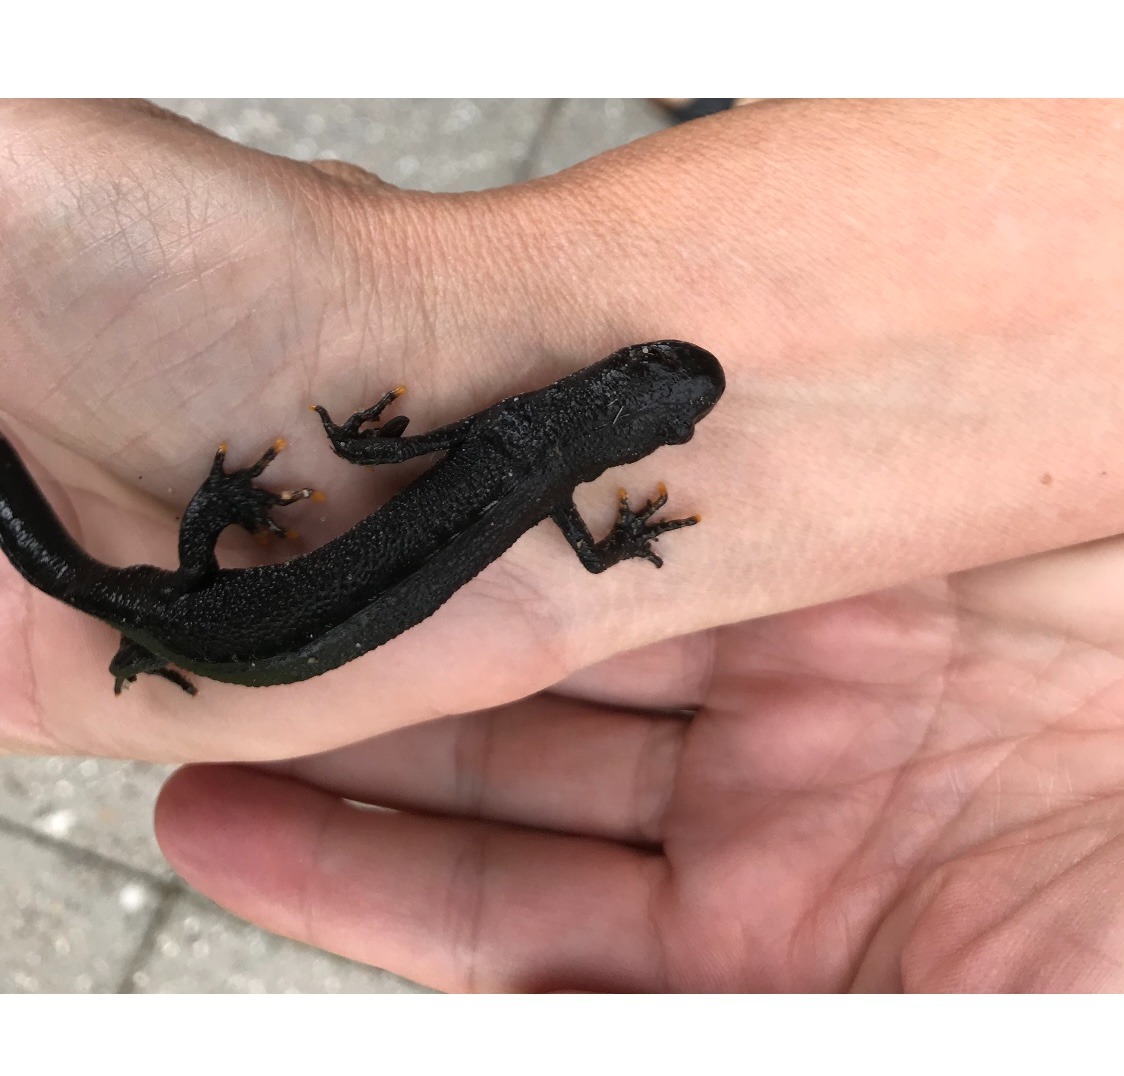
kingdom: Animalia
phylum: Chordata
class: Amphibia
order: Caudata
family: Salamandridae
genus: Triturus
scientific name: Triturus cristatus
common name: Stor vandsalamander
